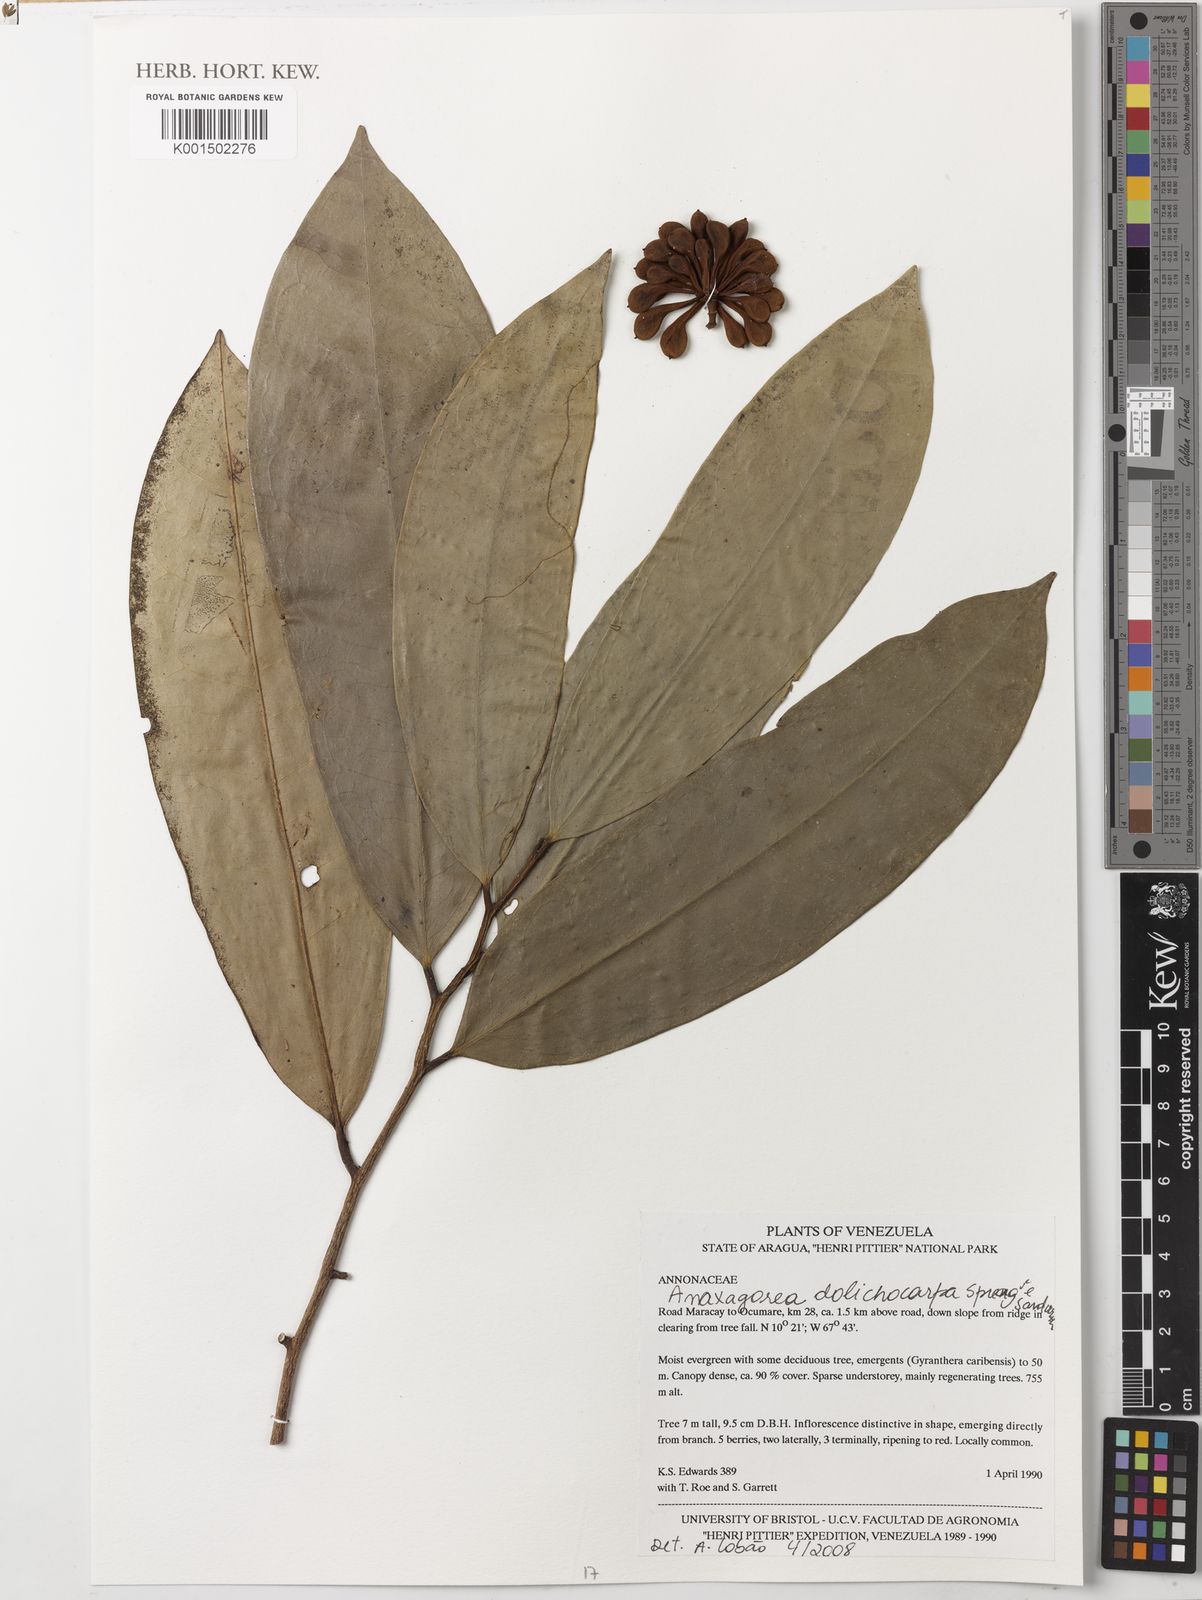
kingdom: Plantae
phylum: Tracheophyta
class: Magnoliopsida
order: Magnoliales
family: Annonaceae
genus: Anaxagorea
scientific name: Anaxagorea dolichocarpa
